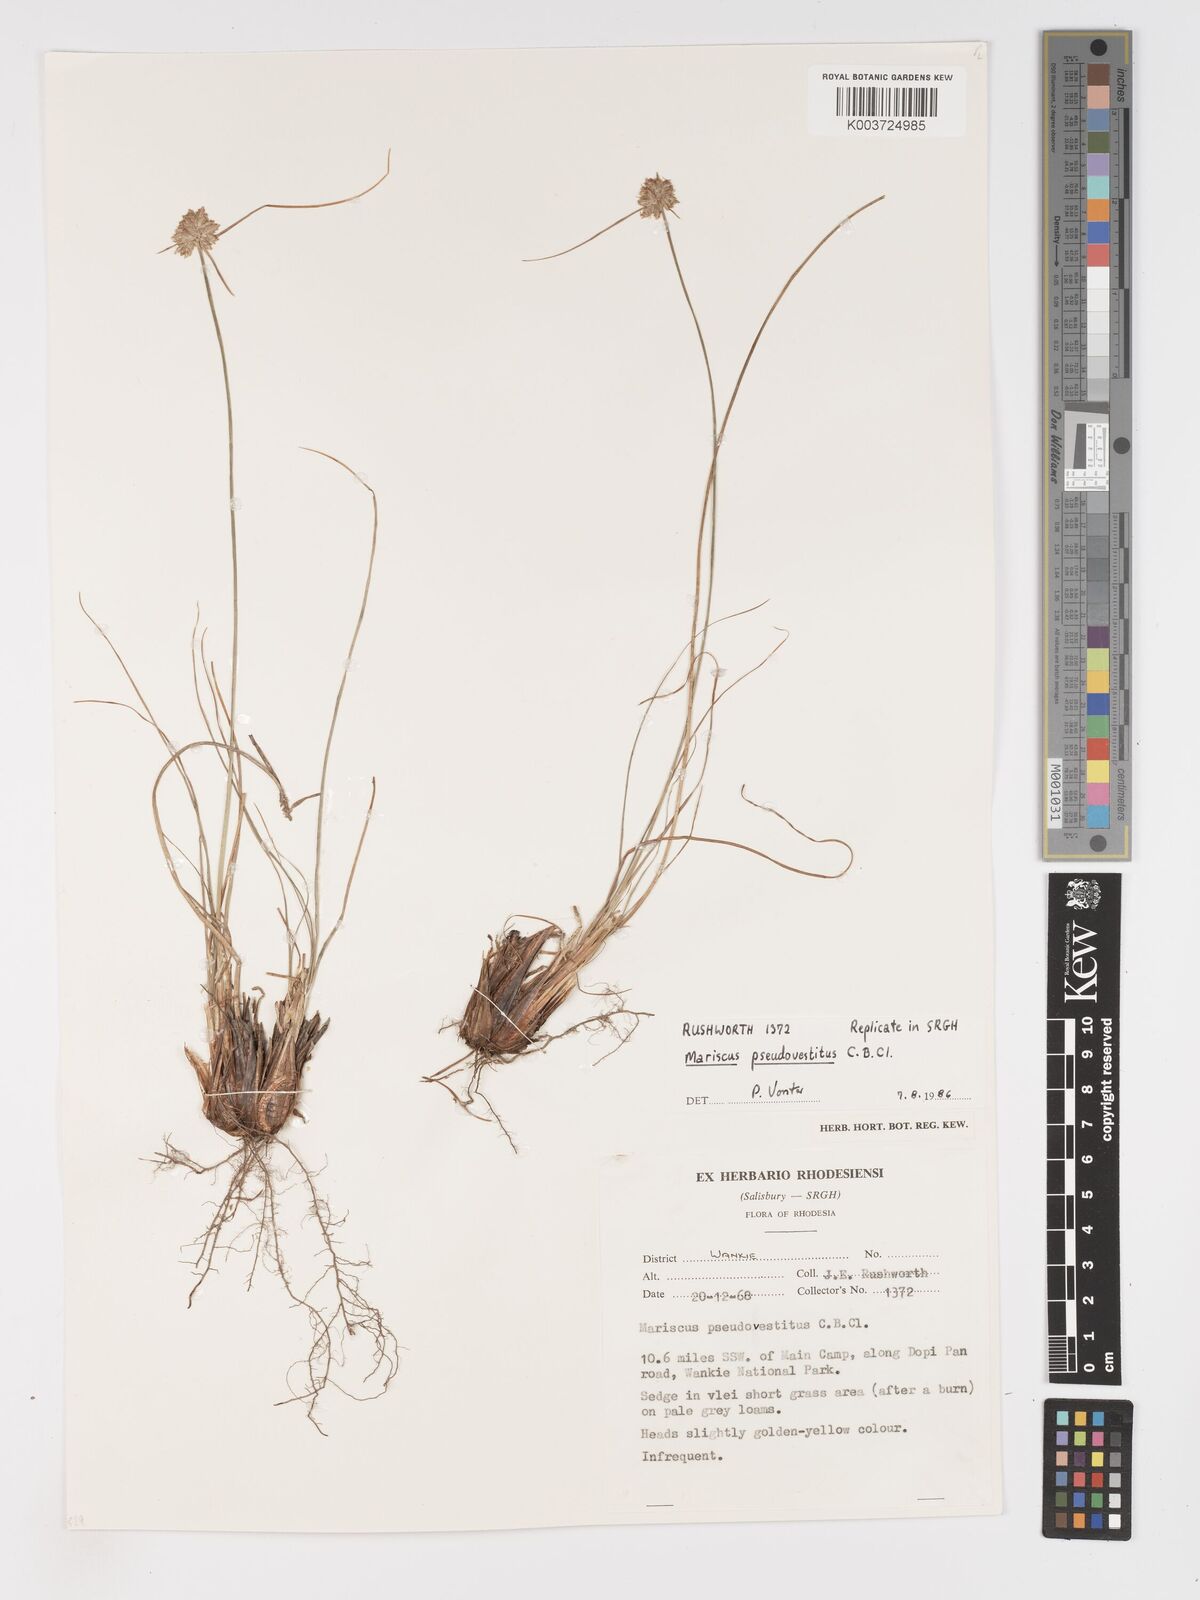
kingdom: Plantae
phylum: Tracheophyta
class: Liliopsida
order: Poales
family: Cyperaceae
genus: Cyperus
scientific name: Cyperus pseudovestitus
